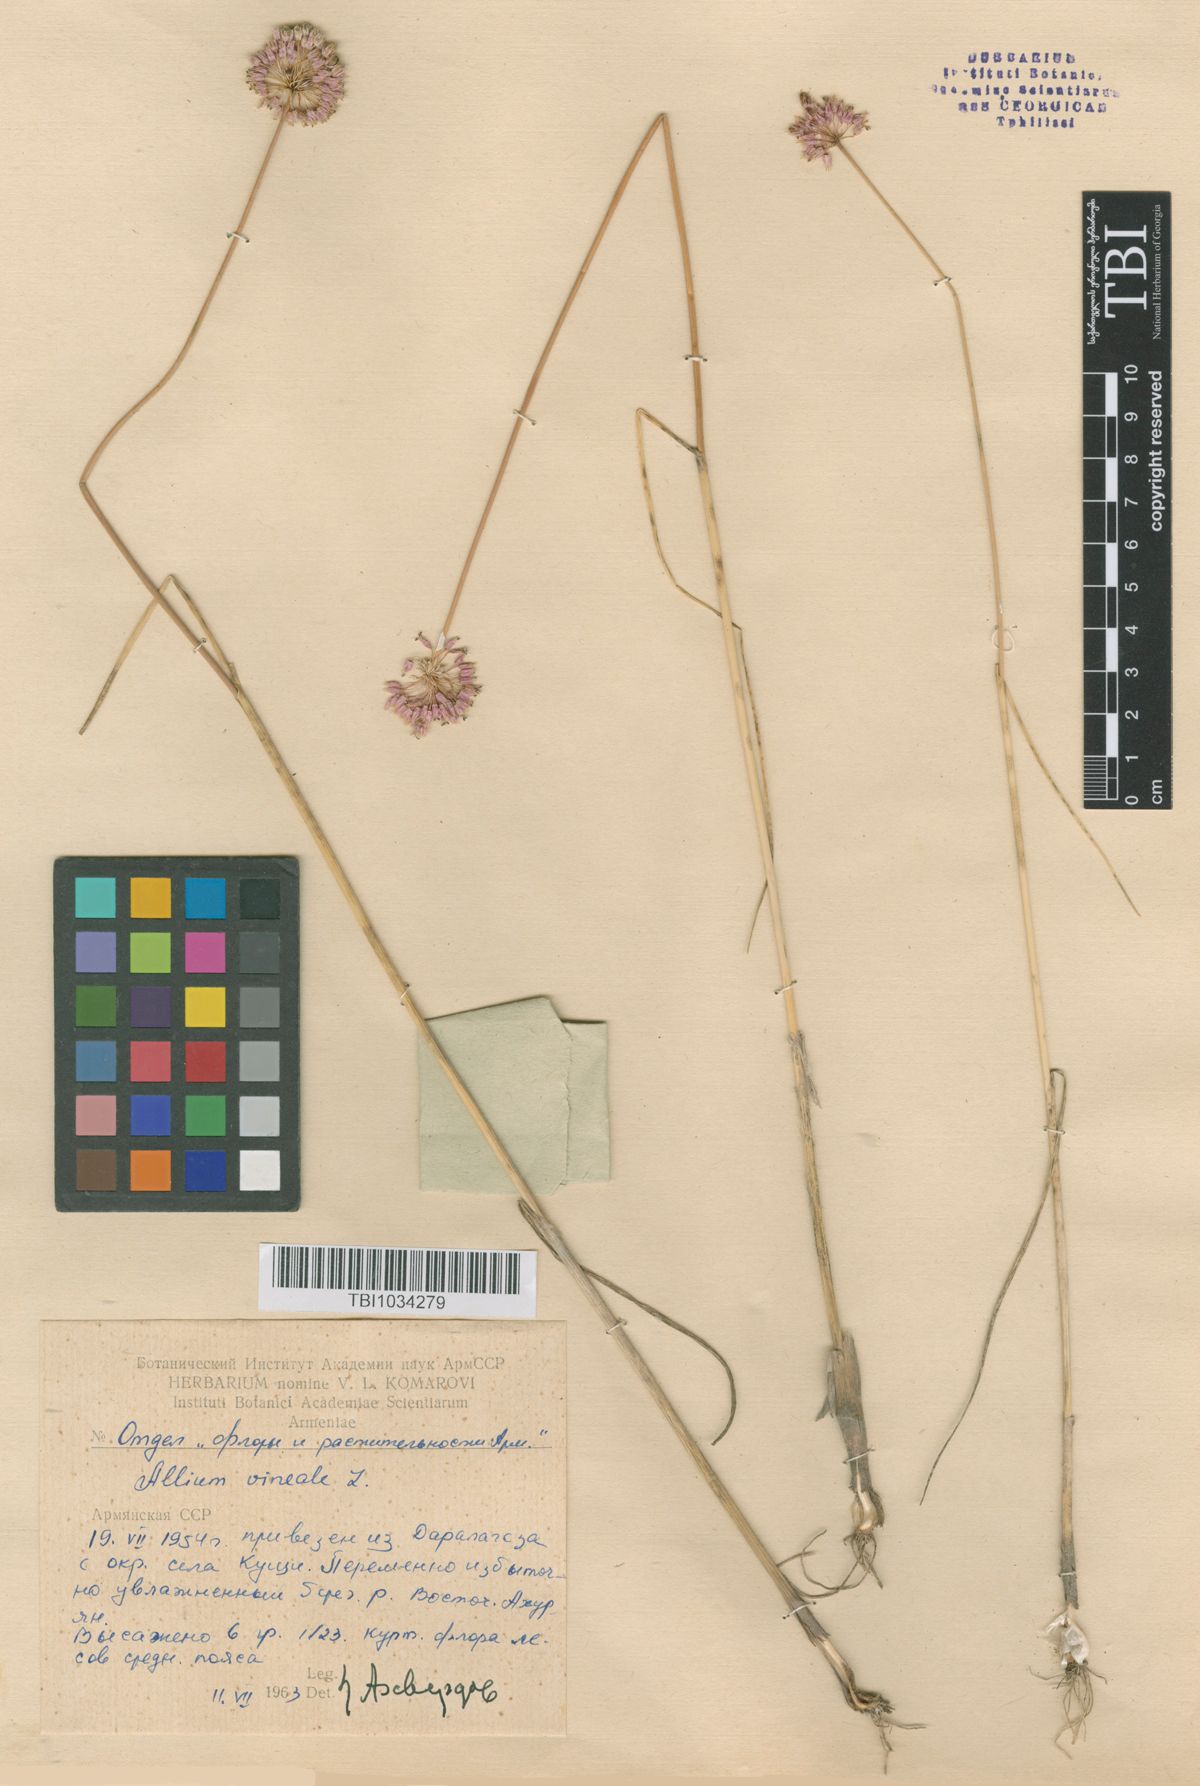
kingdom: Plantae
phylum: Tracheophyta
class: Liliopsida
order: Asparagales
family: Amaryllidaceae
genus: Allium
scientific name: Allium vineale
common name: Crow garlic
